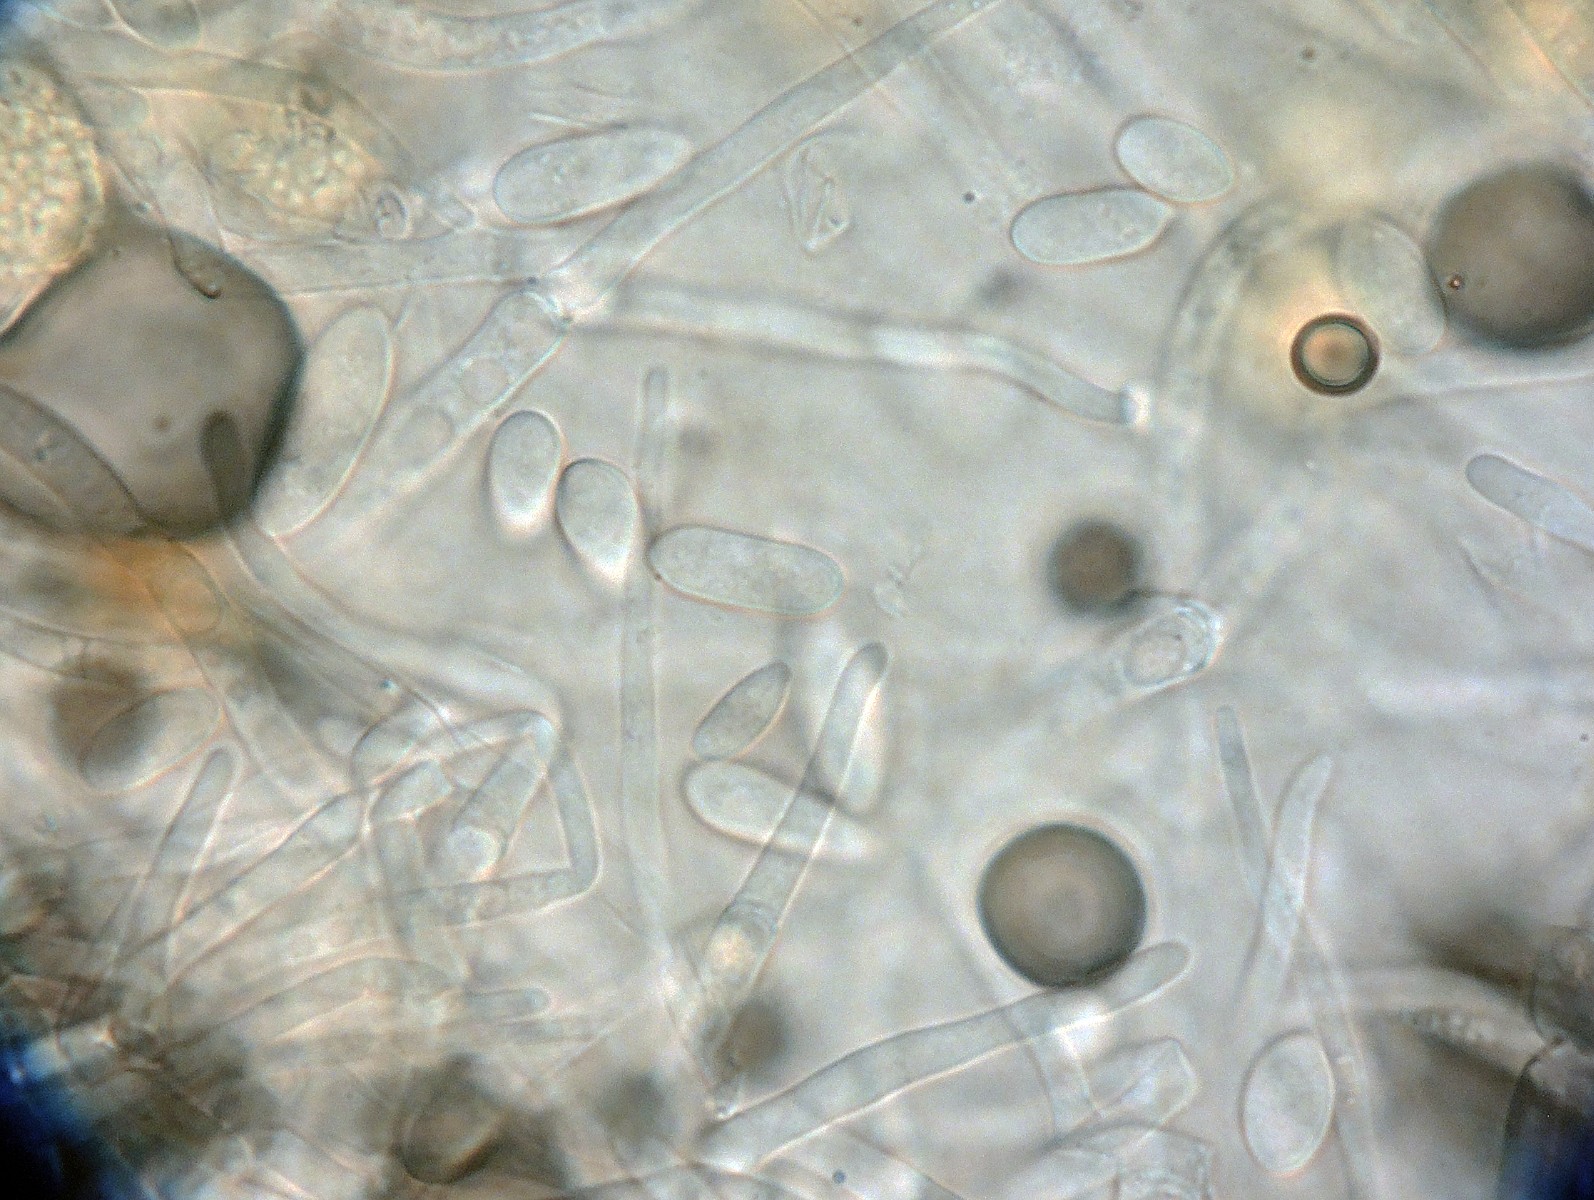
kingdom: Fungi
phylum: Ascomycota
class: Sordariomycetes
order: Hypocreales
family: Hypocreaceae
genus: Hypomyces
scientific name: Hypomyces chrysospermus
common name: gulskimmel-snylteskorpe
